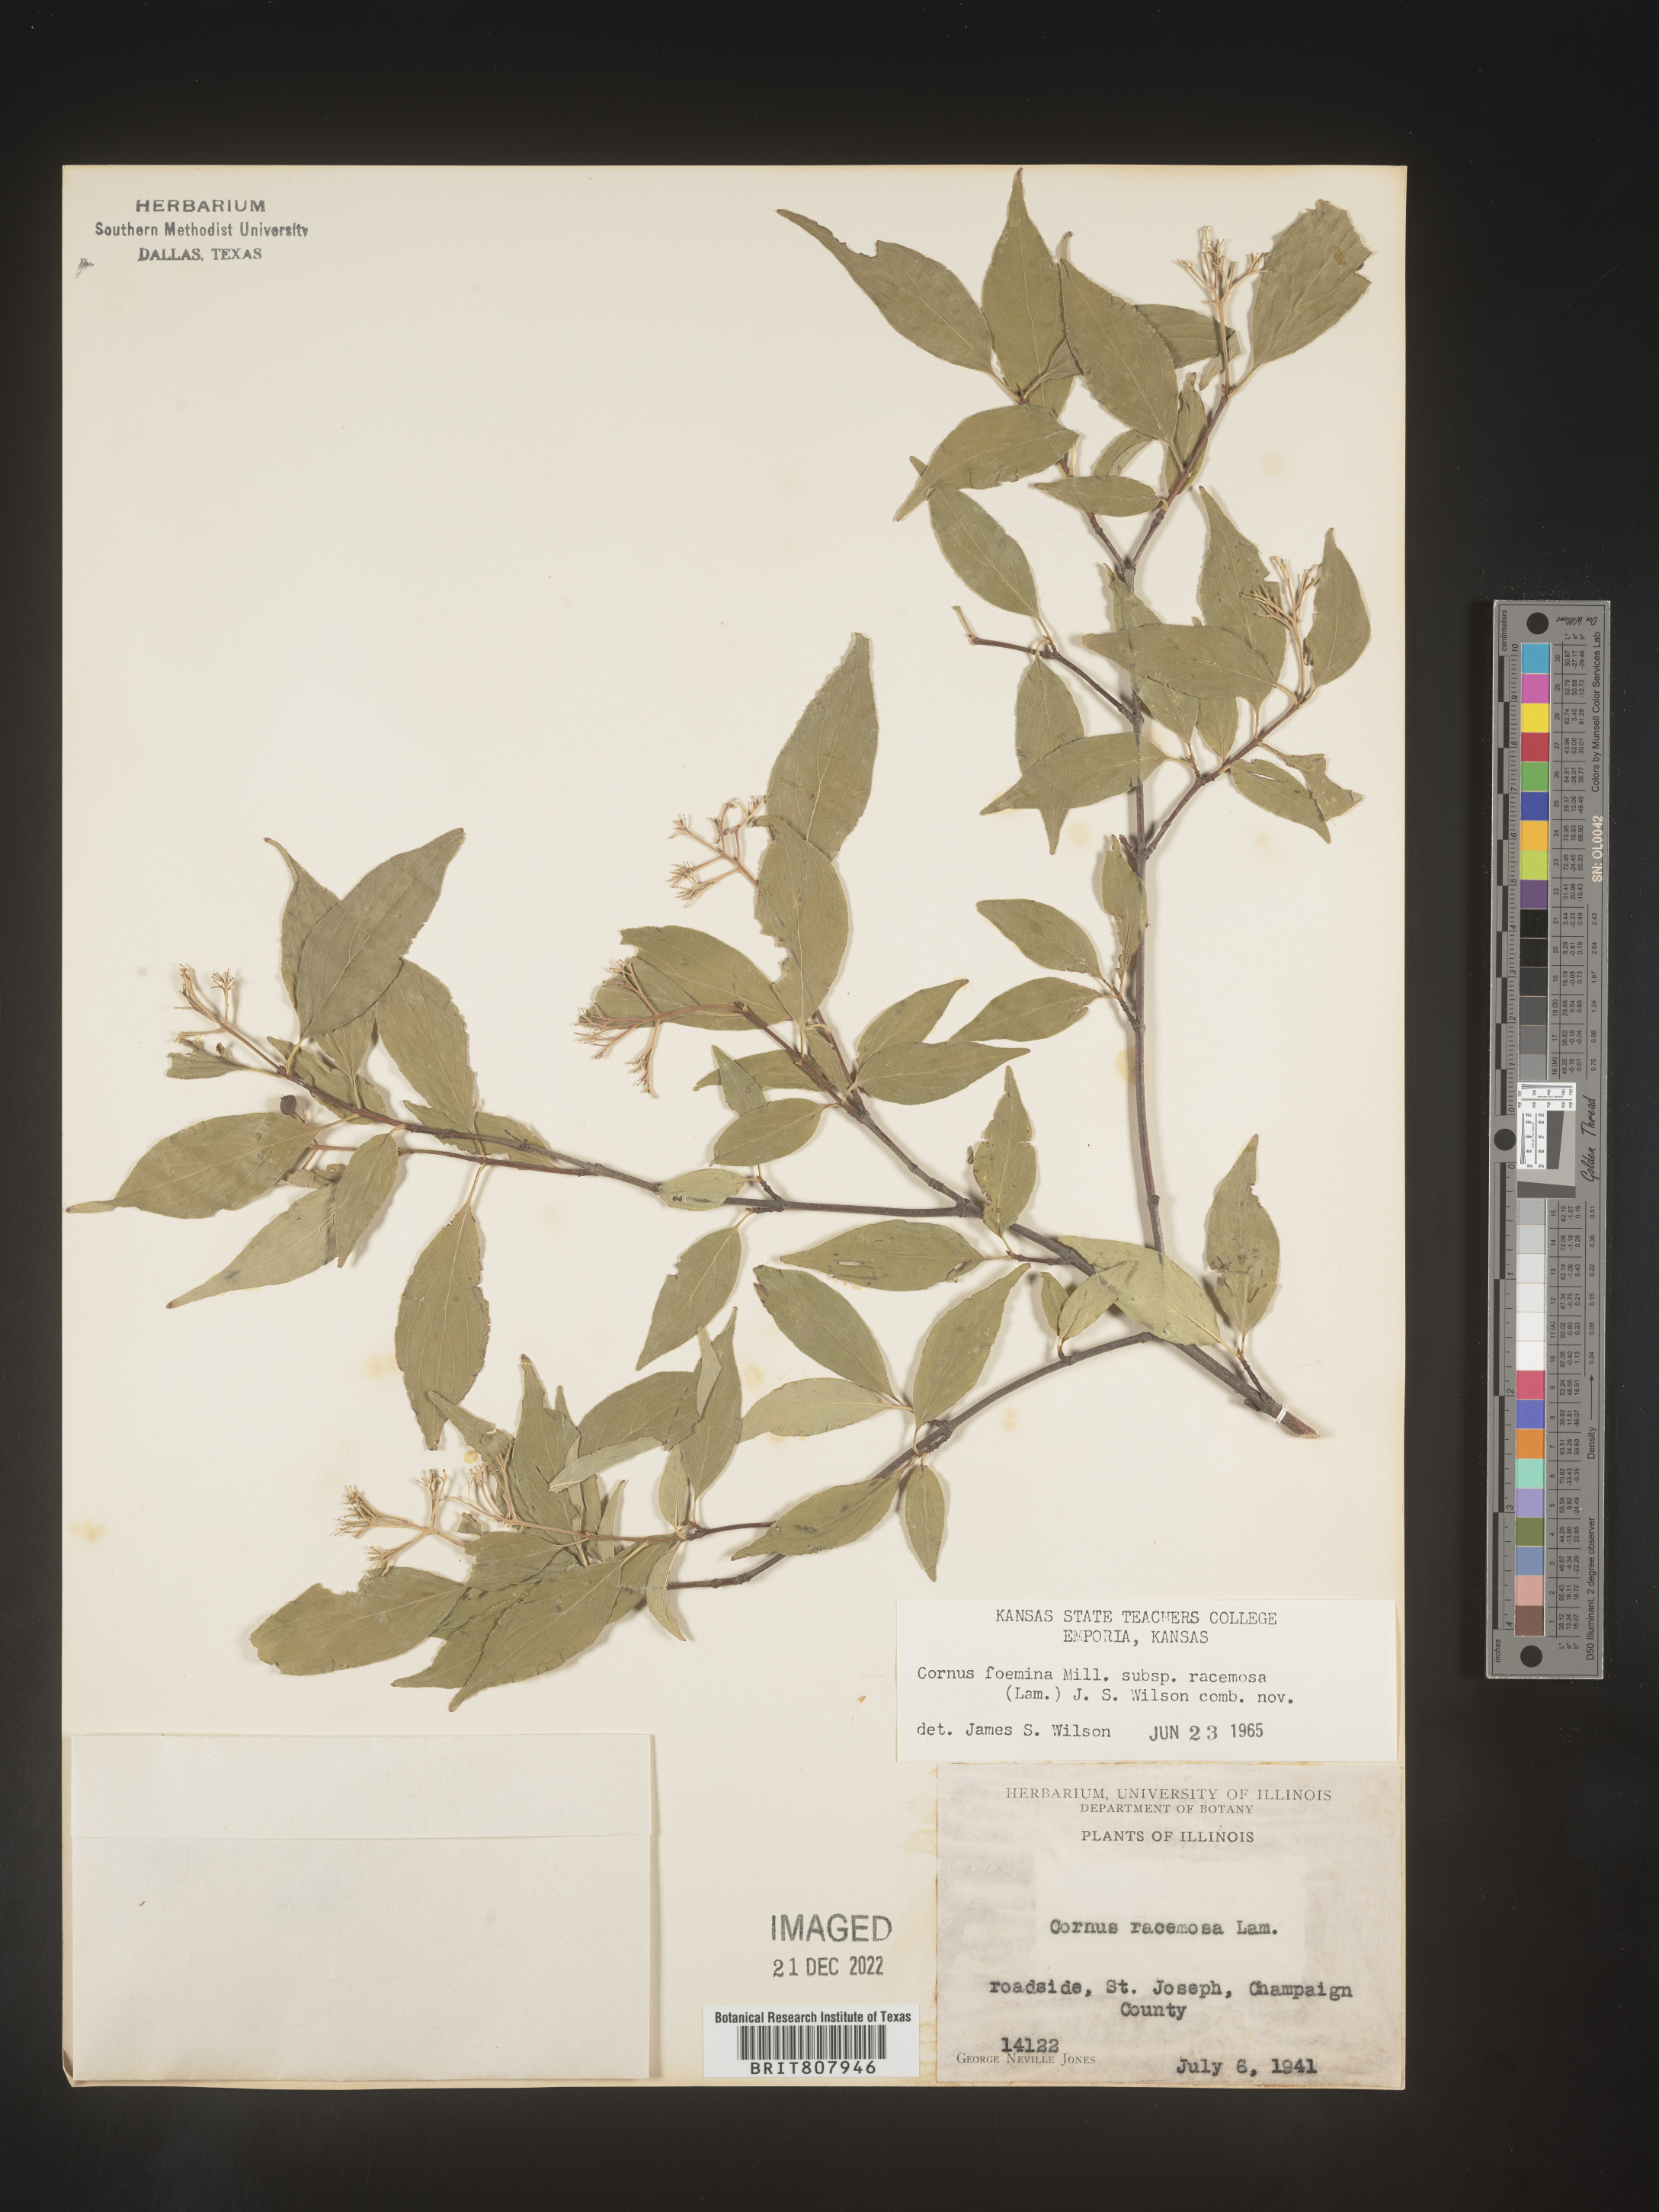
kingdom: Plantae
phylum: Tracheophyta
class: Magnoliopsida
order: Cornales
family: Cornaceae
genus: Cornus
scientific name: Cornus racemosa
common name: Panicled dogwood
